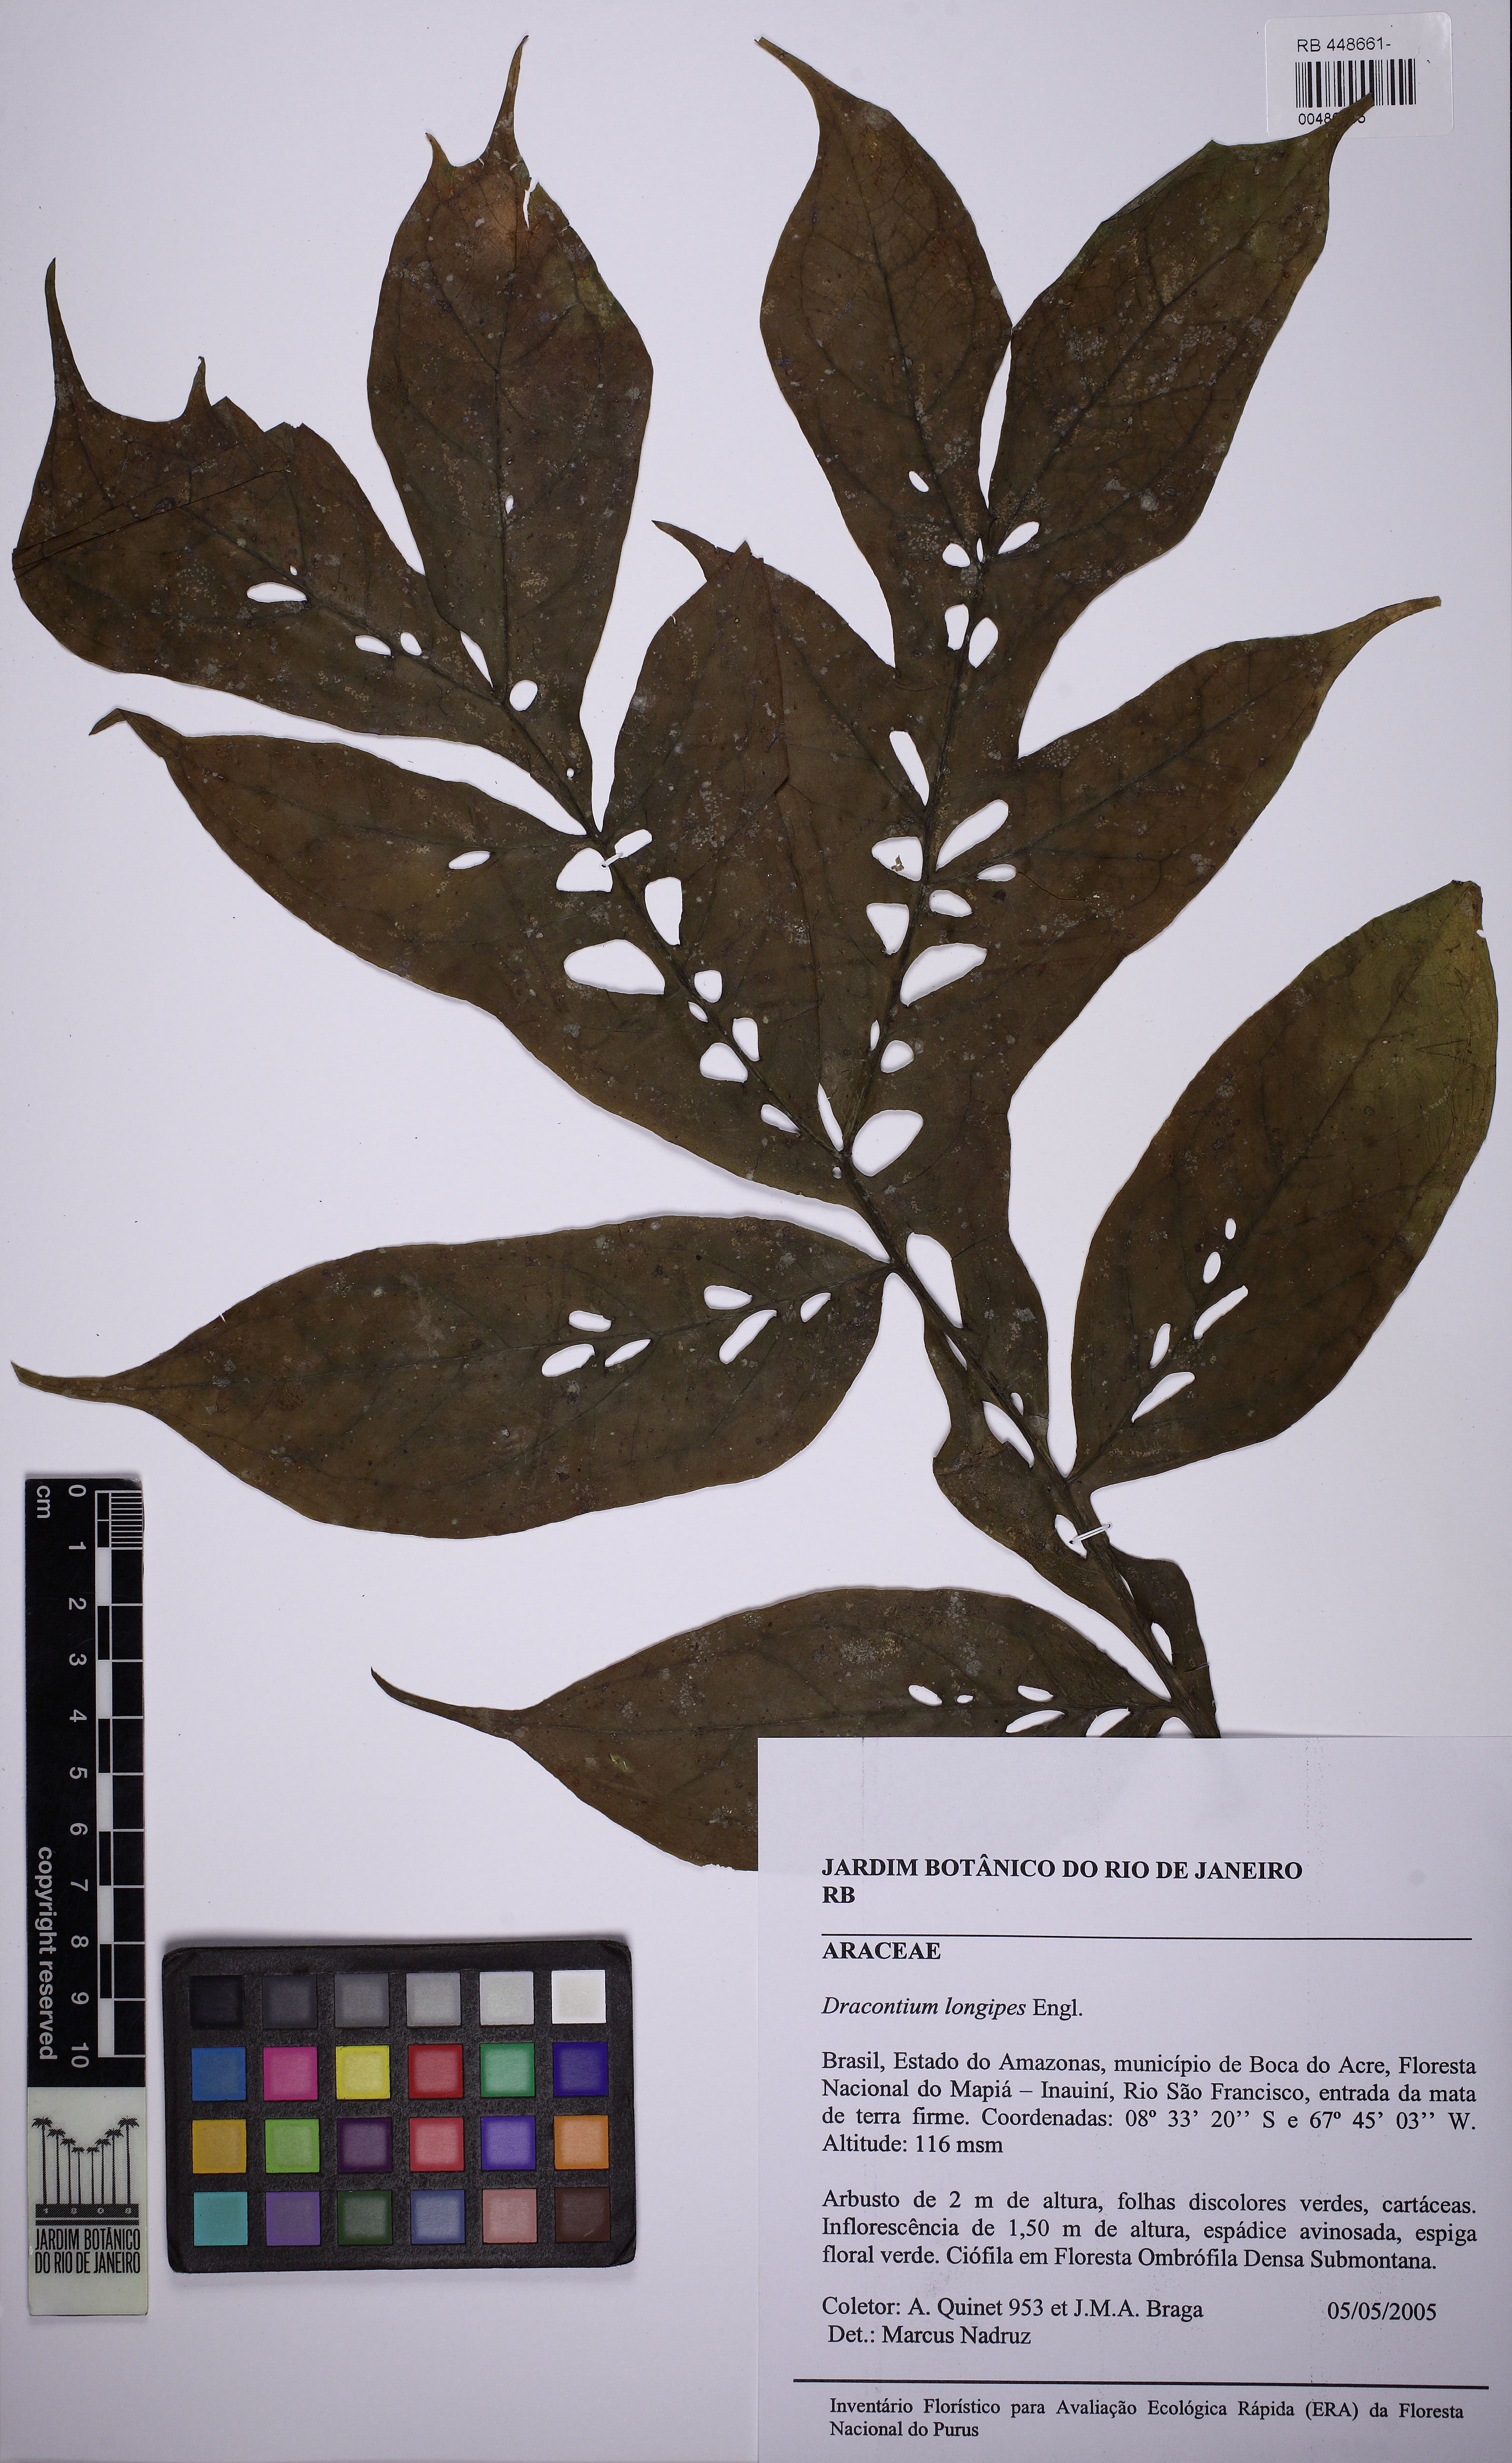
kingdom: Plantae
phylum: Tracheophyta
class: Liliopsida
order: Alismatales
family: Araceae
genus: Dracontium
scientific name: Dracontium longipes
